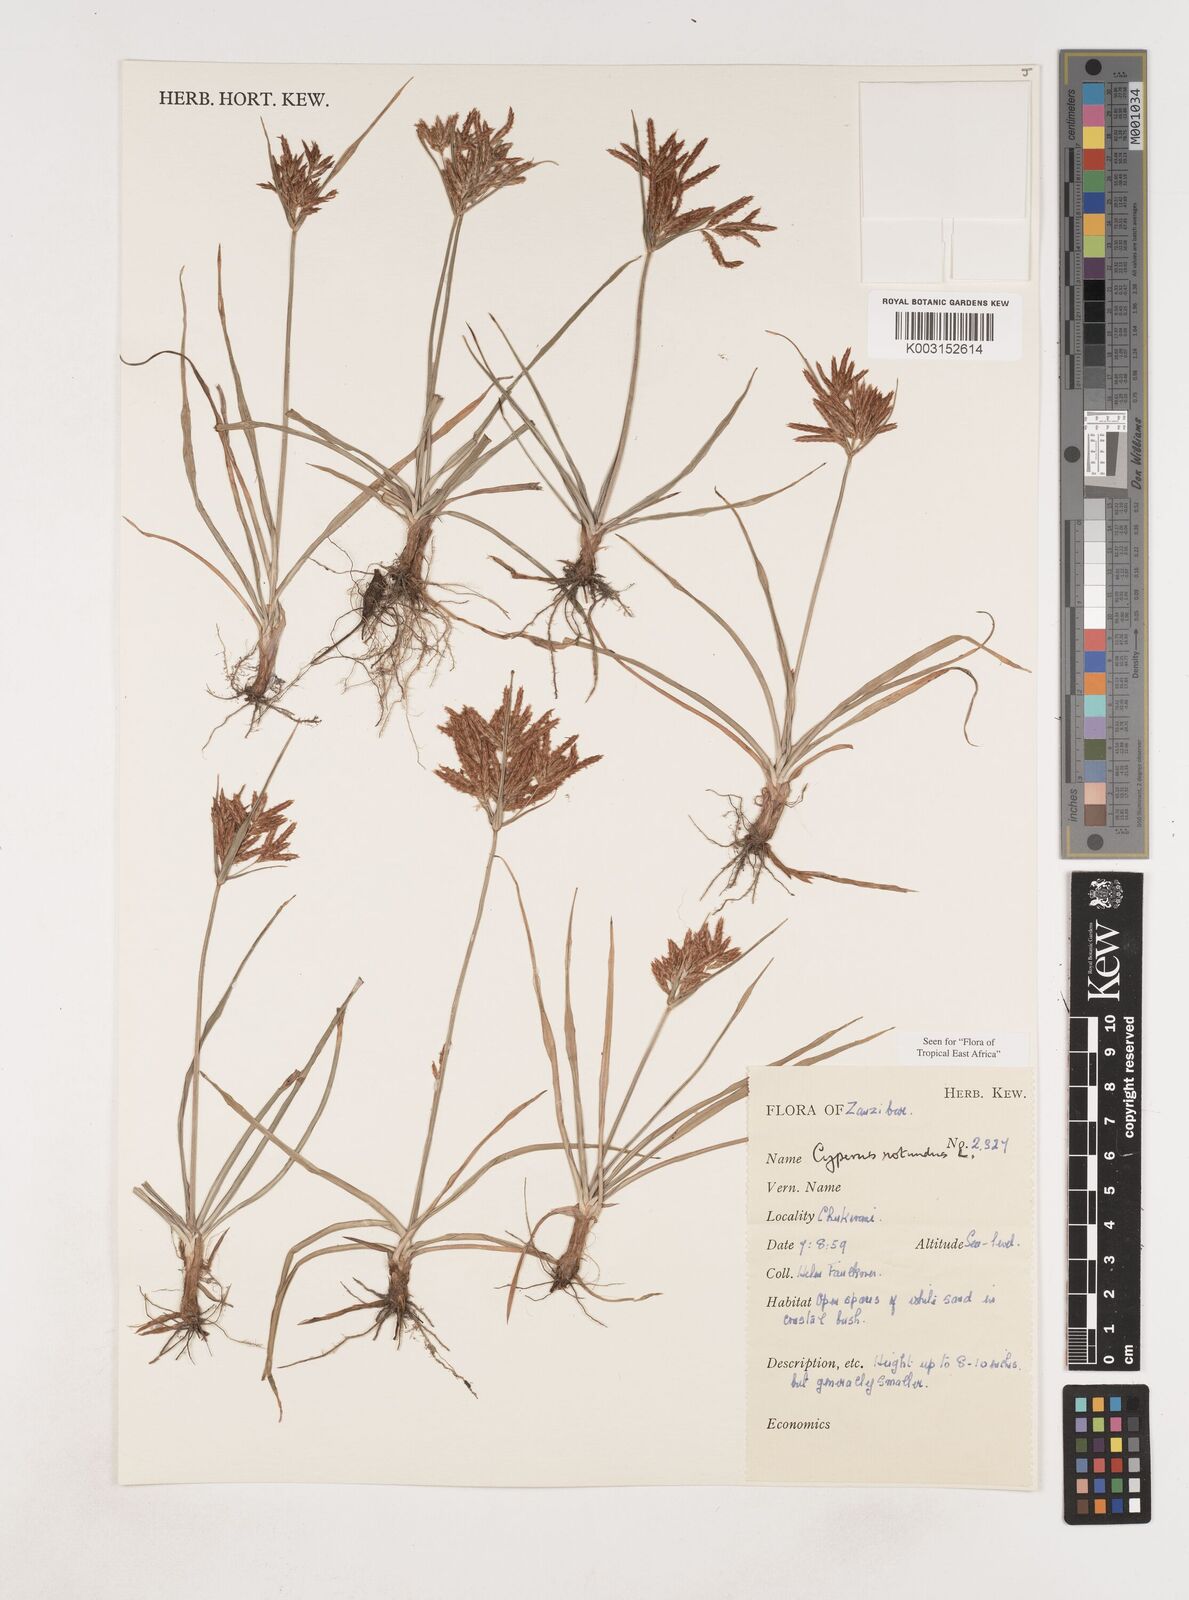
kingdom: Plantae
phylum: Tracheophyta
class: Liliopsida
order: Poales
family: Cyperaceae
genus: Cyperus
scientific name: Cyperus rotundus
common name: Nutgrass
